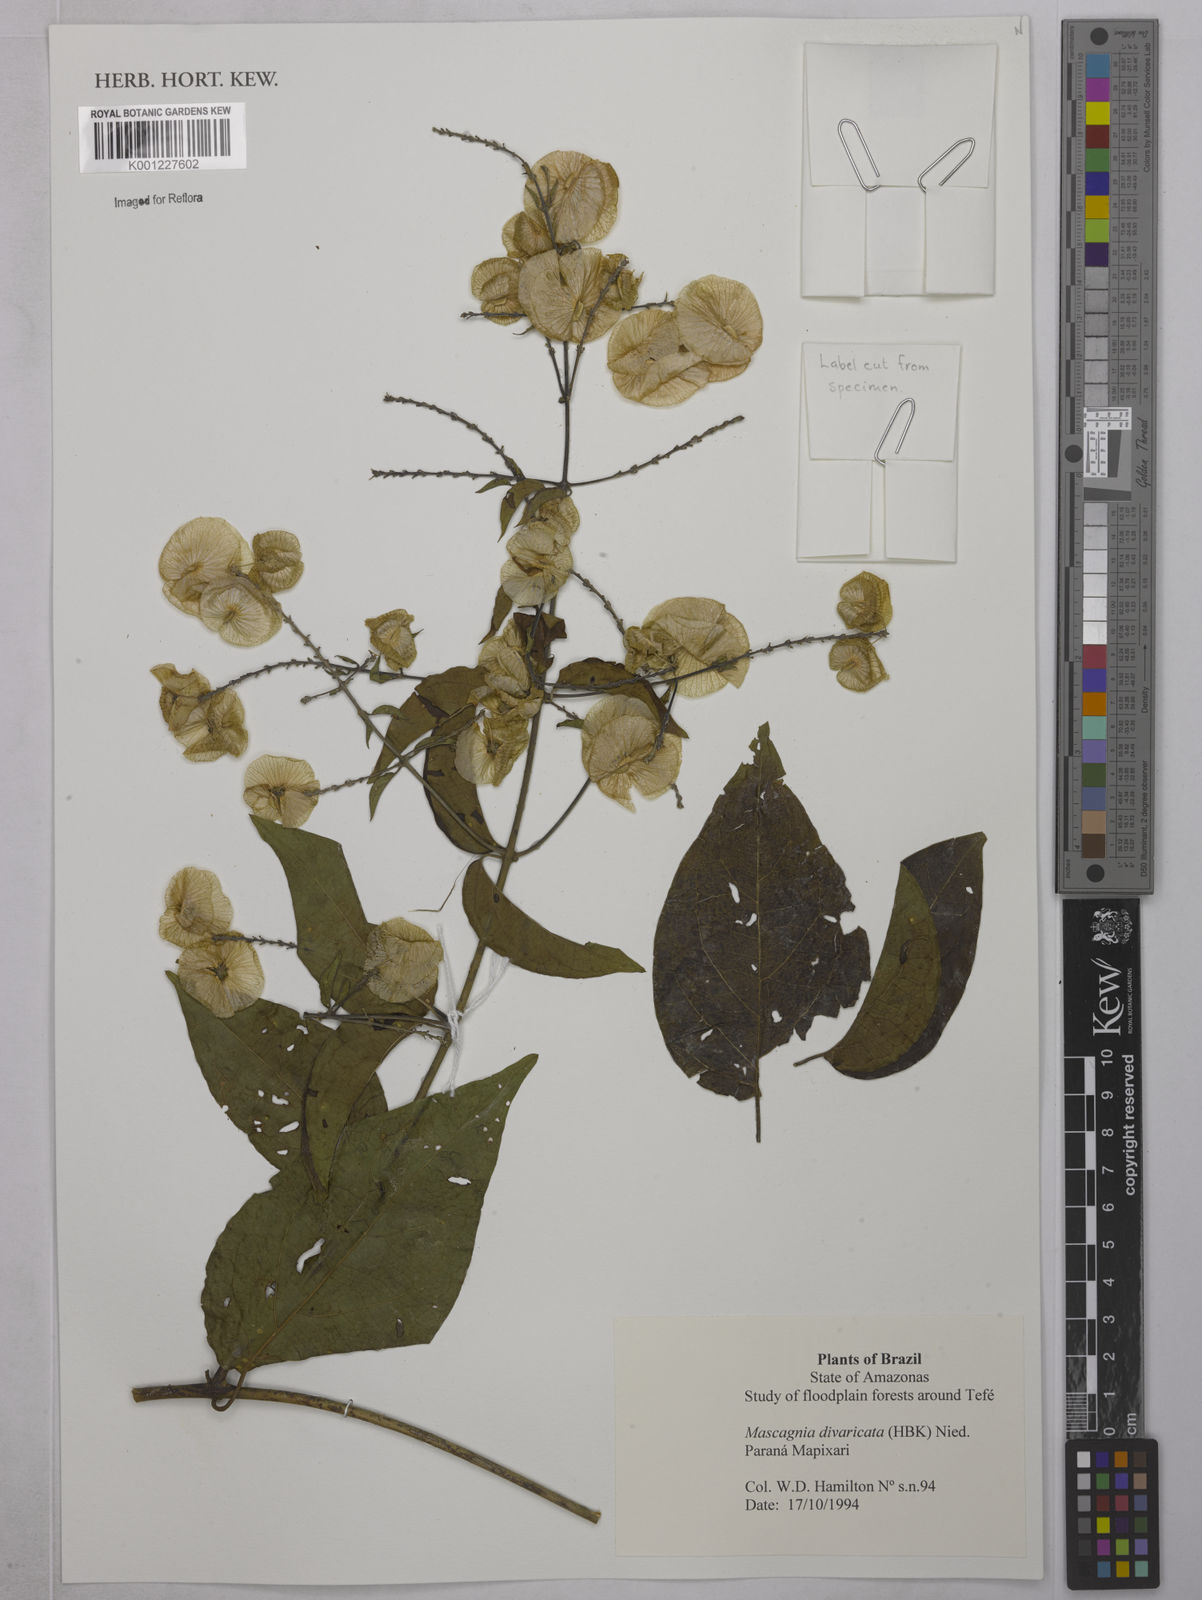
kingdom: Plantae
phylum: Tracheophyta
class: Magnoliopsida
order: Malpighiales
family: Malpighiaceae
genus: Mascagnia
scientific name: Mascagnia divaricata
